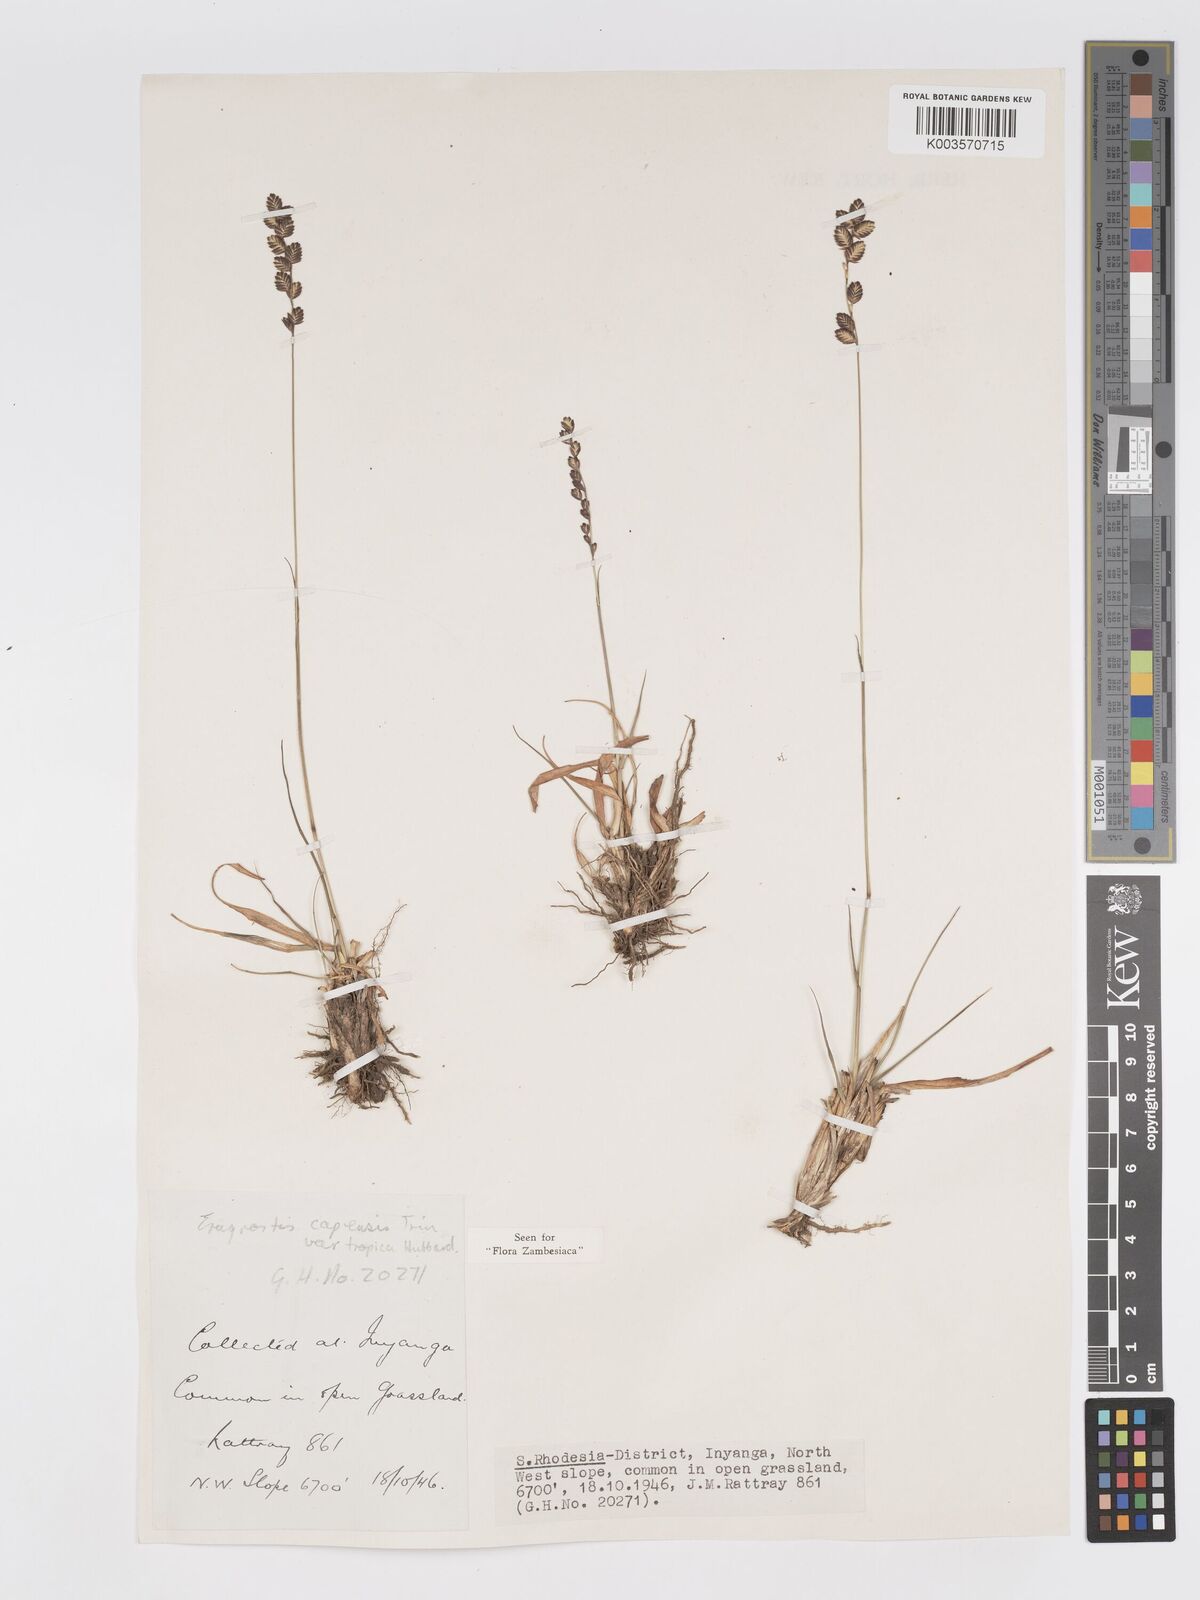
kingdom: Plantae
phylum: Tracheophyta
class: Liliopsida
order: Poales
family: Poaceae
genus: Eragrostis
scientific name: Eragrostis capensis
